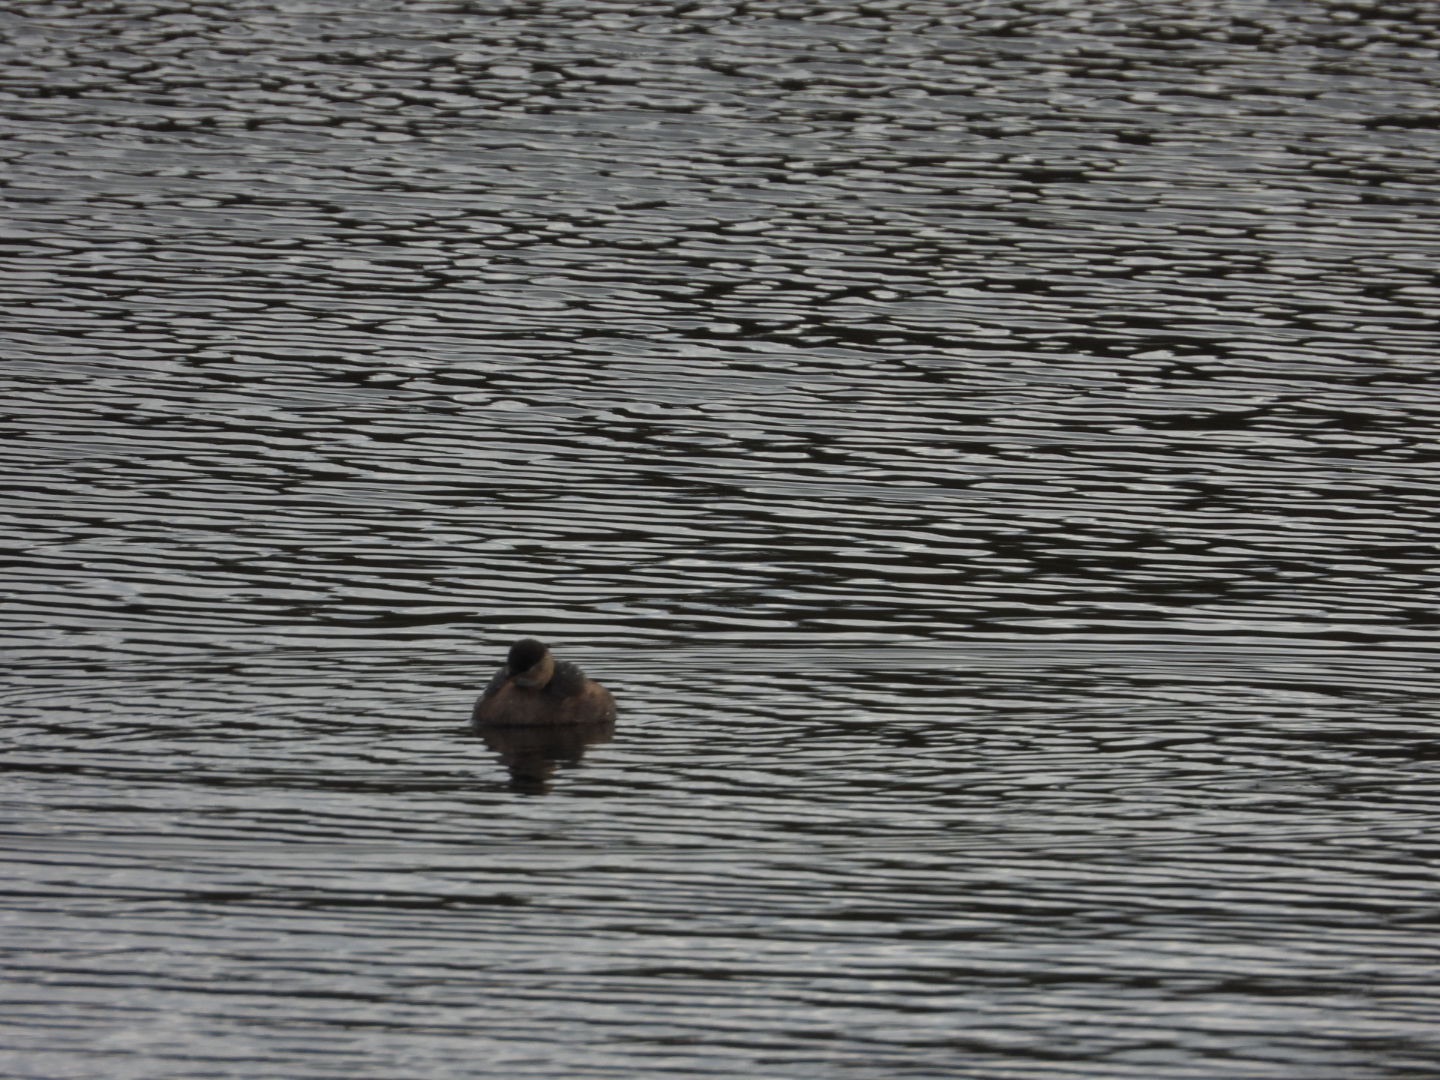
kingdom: Animalia
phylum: Chordata
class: Aves
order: Podicipediformes
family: Podicipedidae
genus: Tachybaptus
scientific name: Tachybaptus ruficollis
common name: Lille lappedykker
